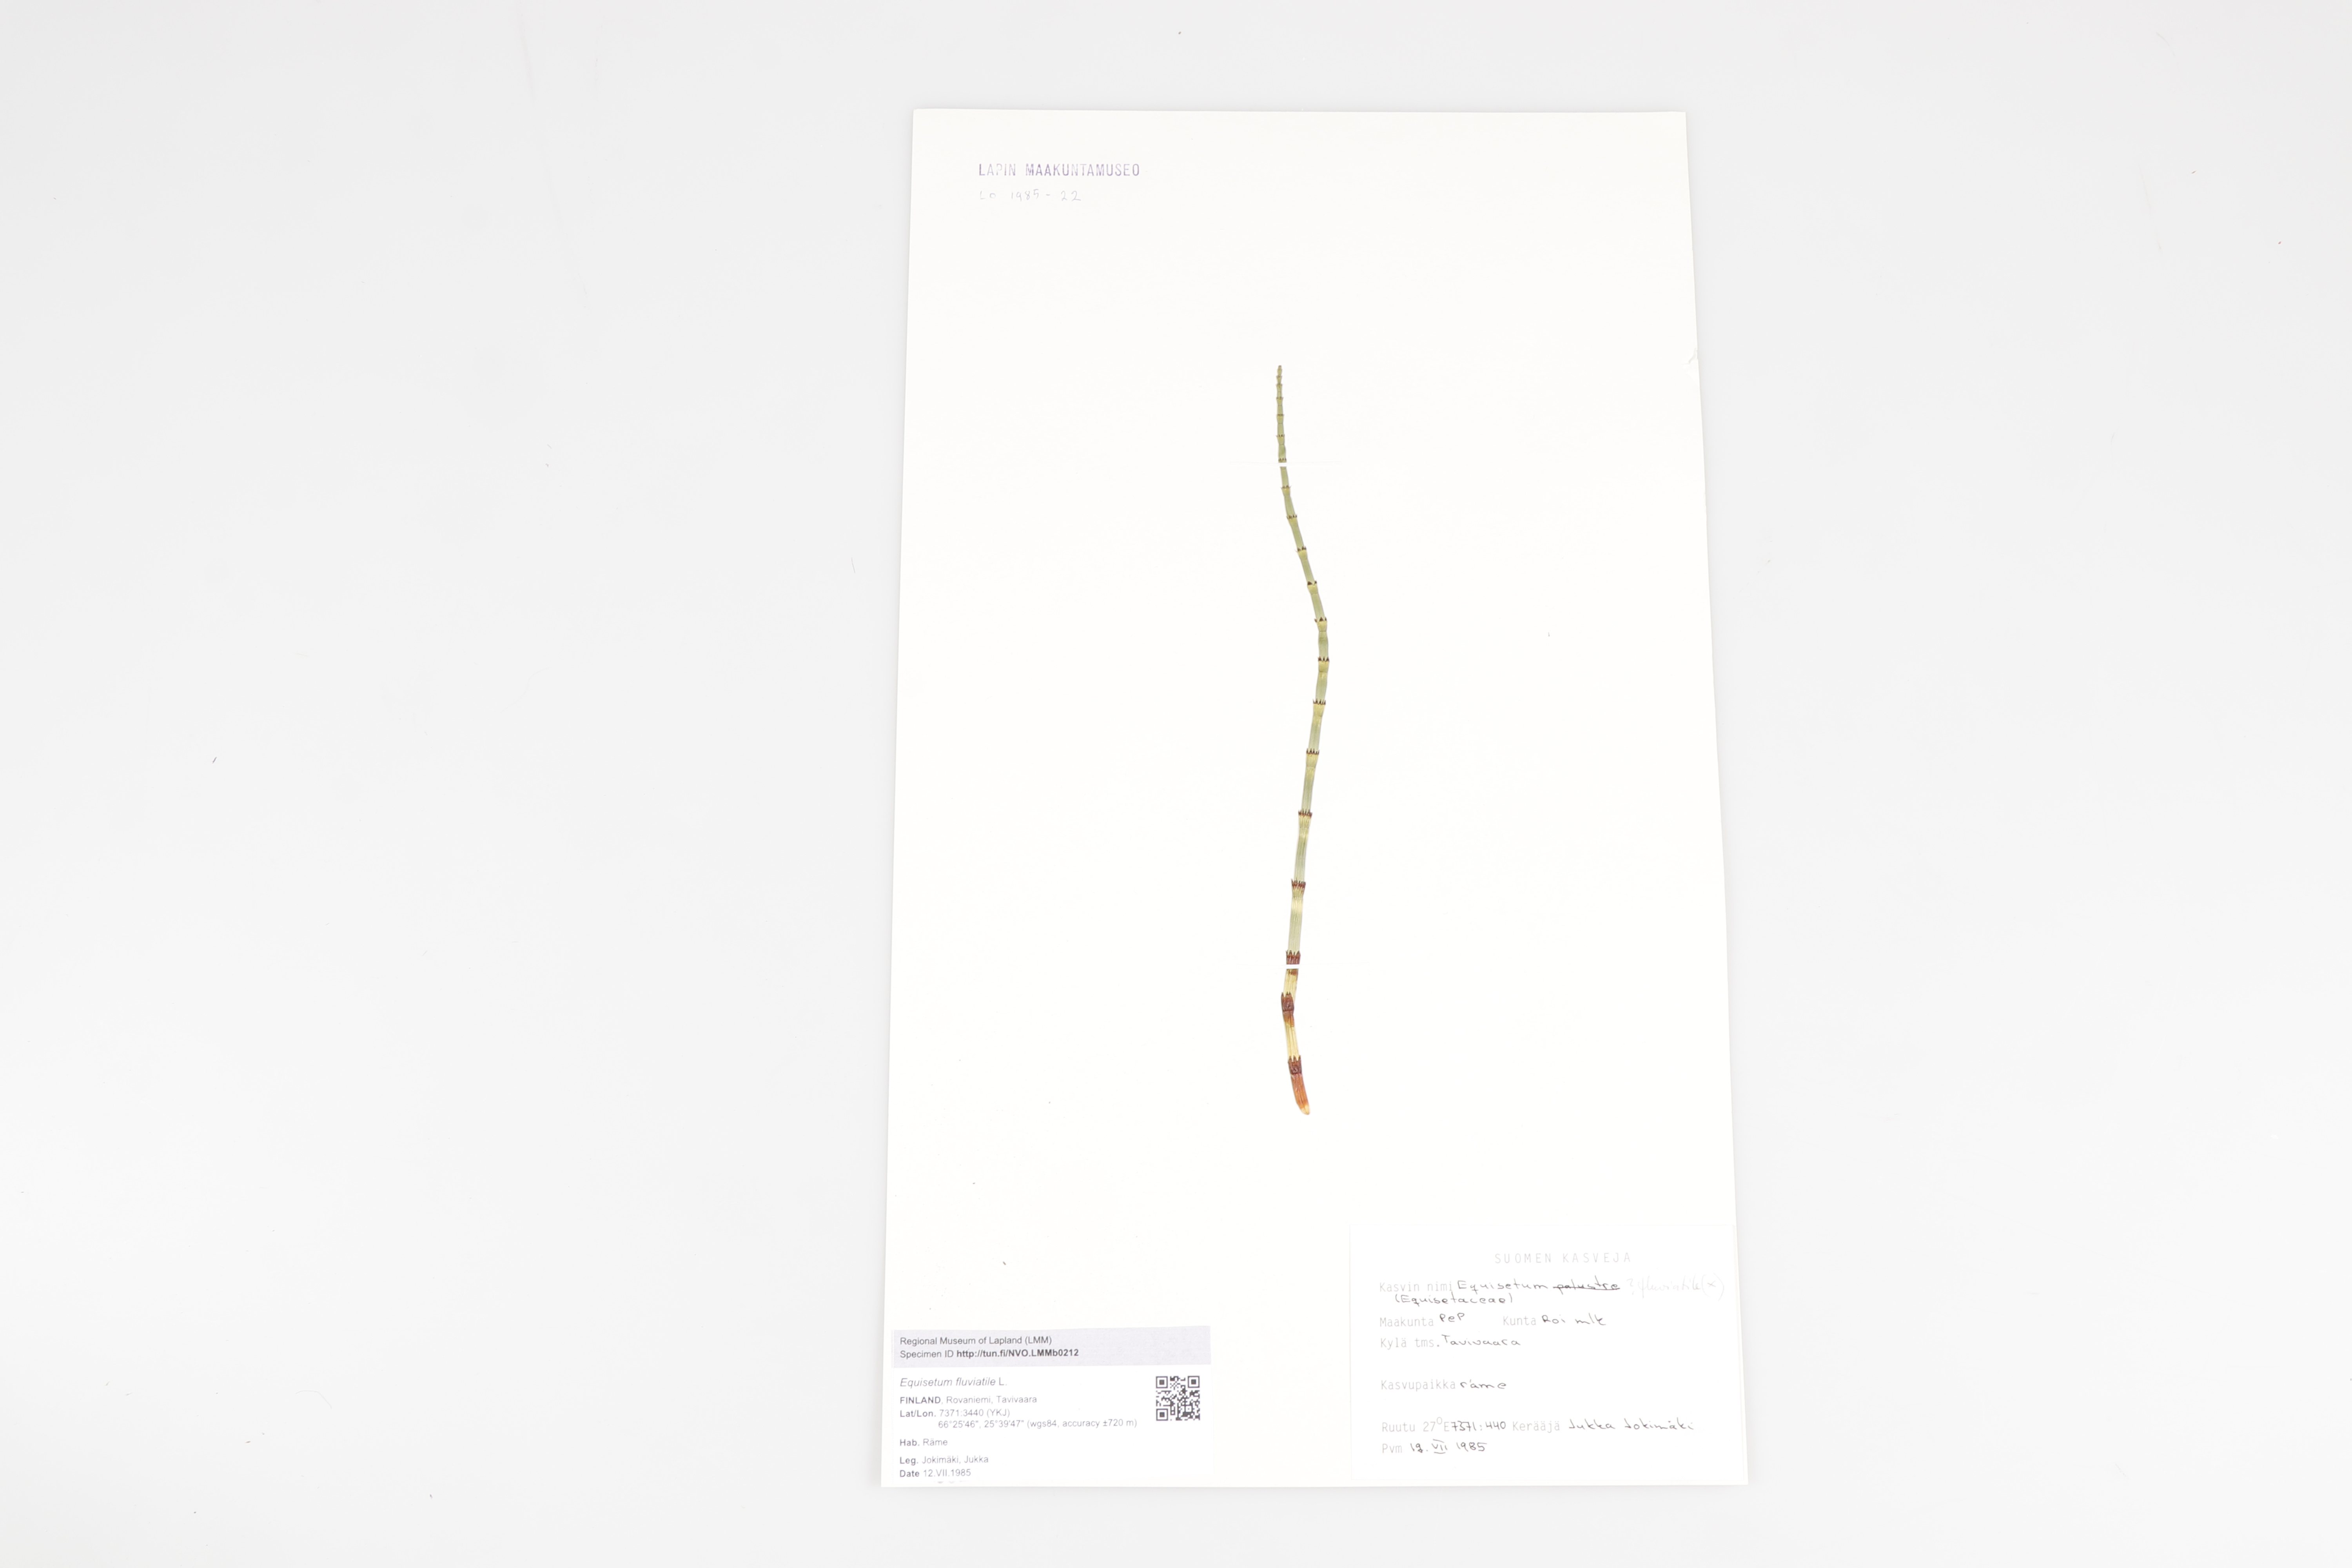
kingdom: Plantae
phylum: Tracheophyta
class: Polypodiopsida
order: Equisetales
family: Equisetaceae
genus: Equisetum
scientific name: Equisetum fluviatile
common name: Water horsetail
